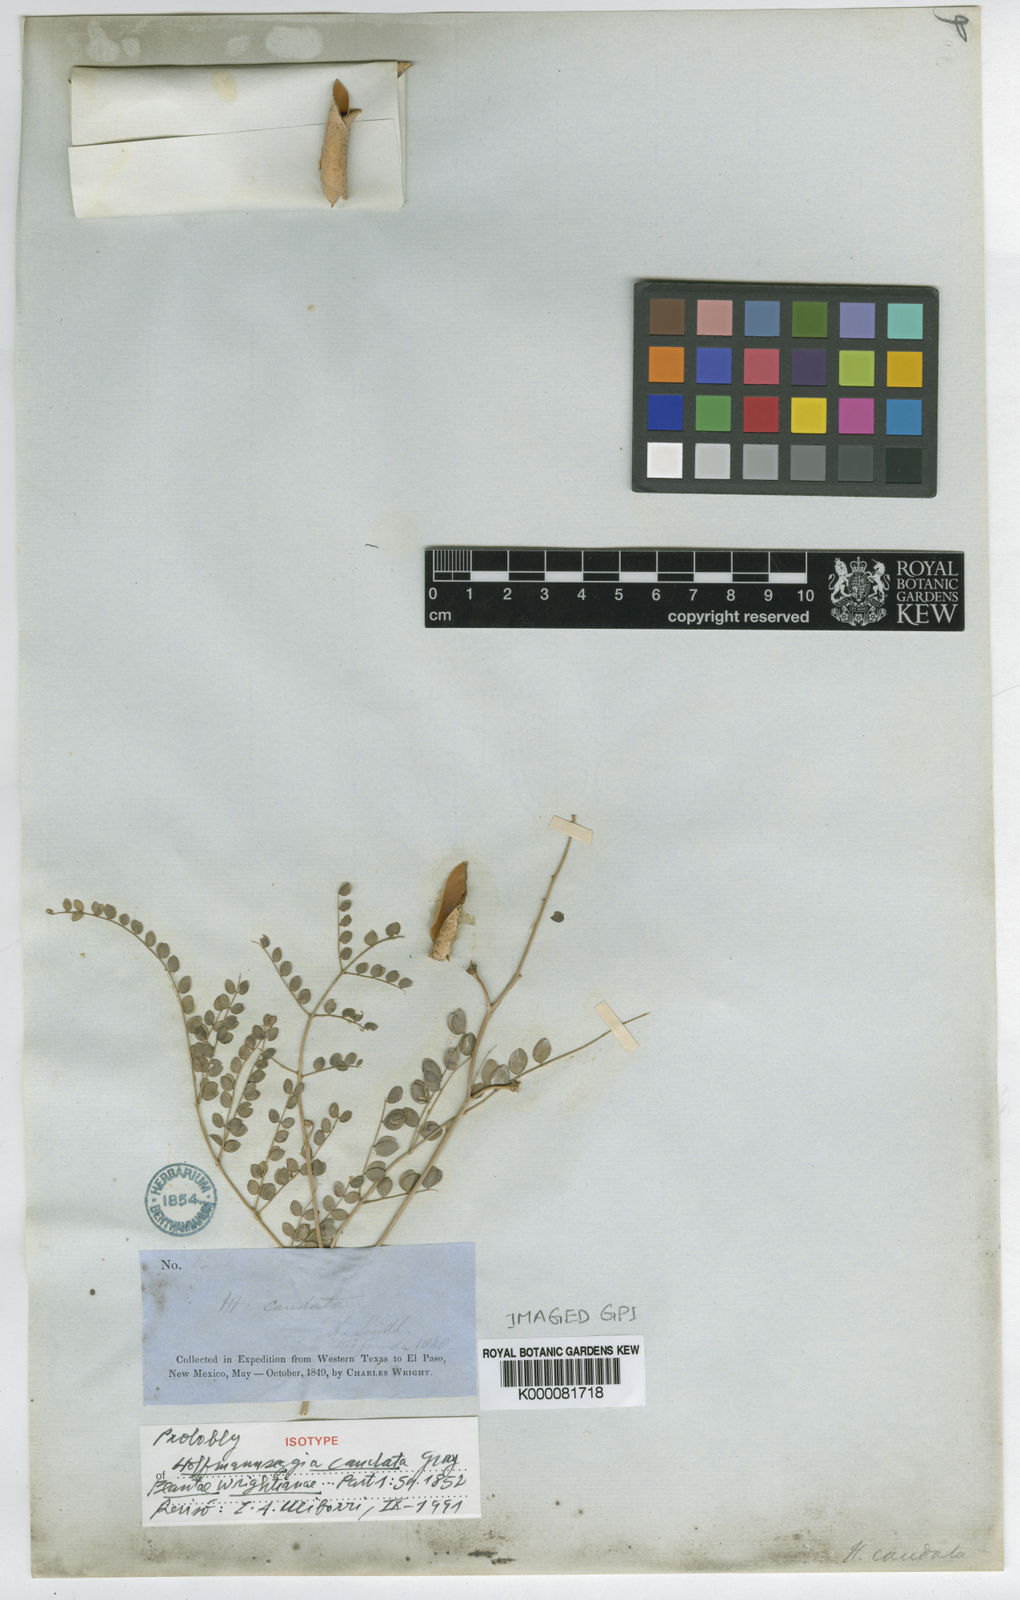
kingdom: Plantae
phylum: Tracheophyta
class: Magnoliopsida
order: Fabales
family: Fabaceae
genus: Erythrostemon
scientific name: Erythrostemon caudatus
